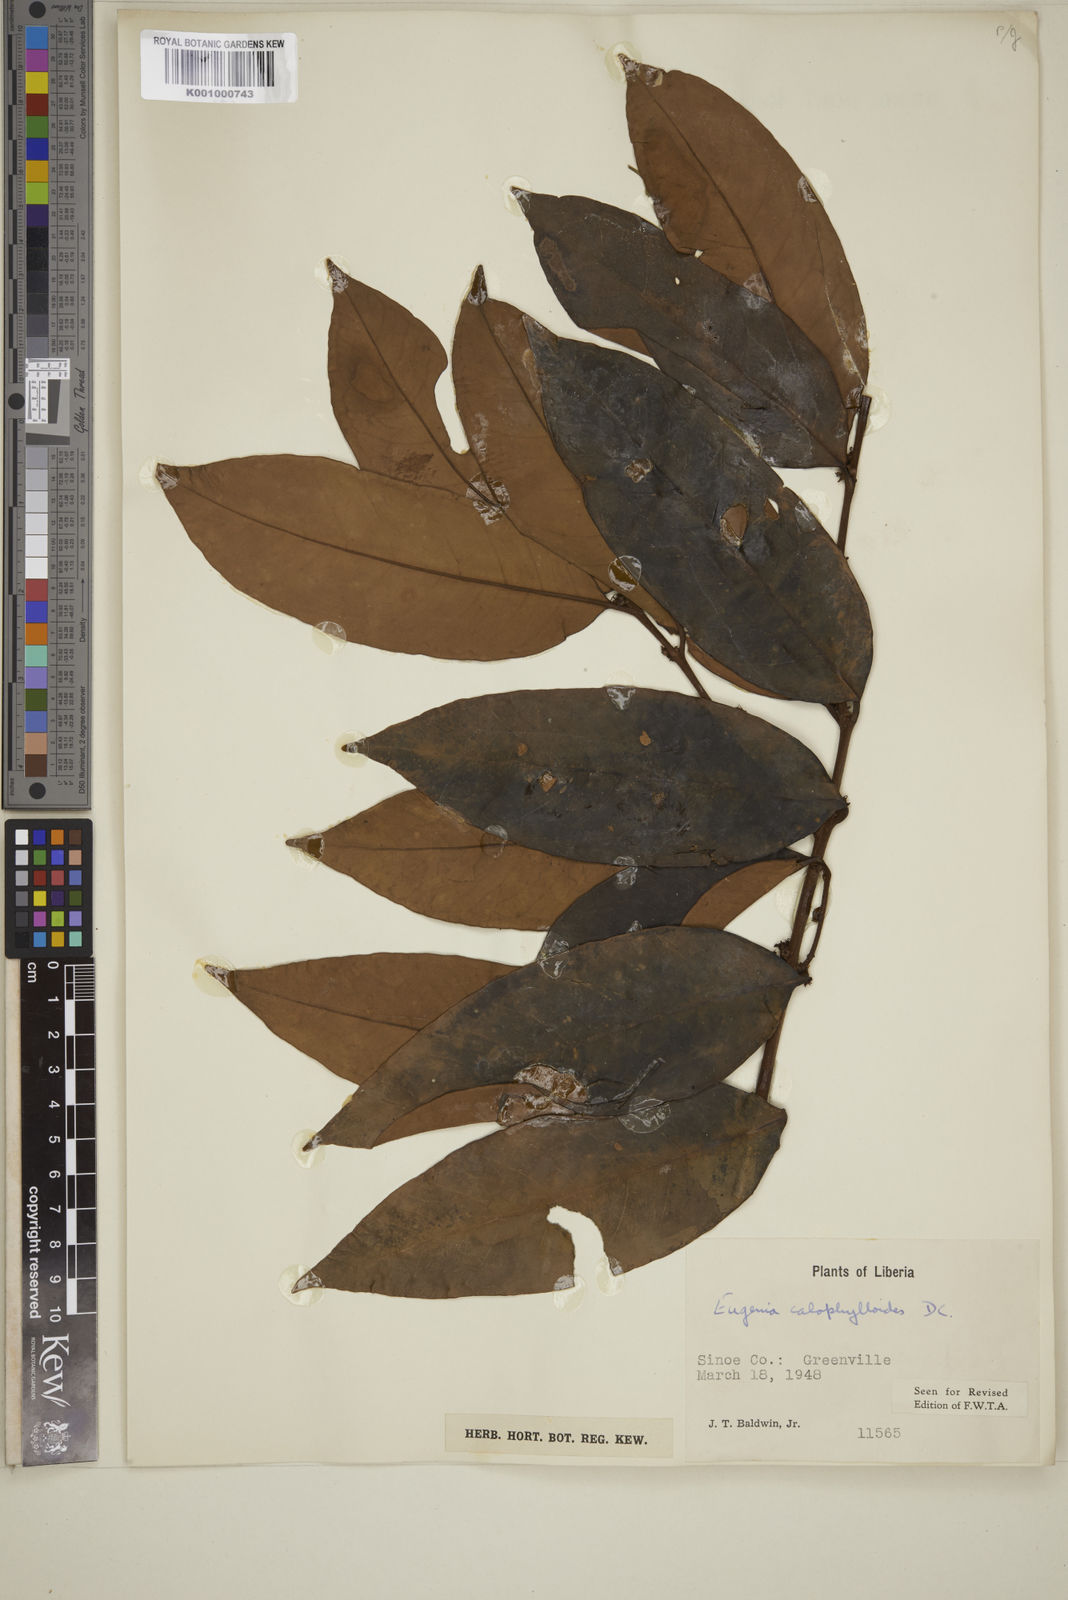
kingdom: Plantae
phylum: Tracheophyta
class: Magnoliopsida
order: Myrtales
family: Myrtaceae
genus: Eugenia
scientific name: Eugenia calophylloides
